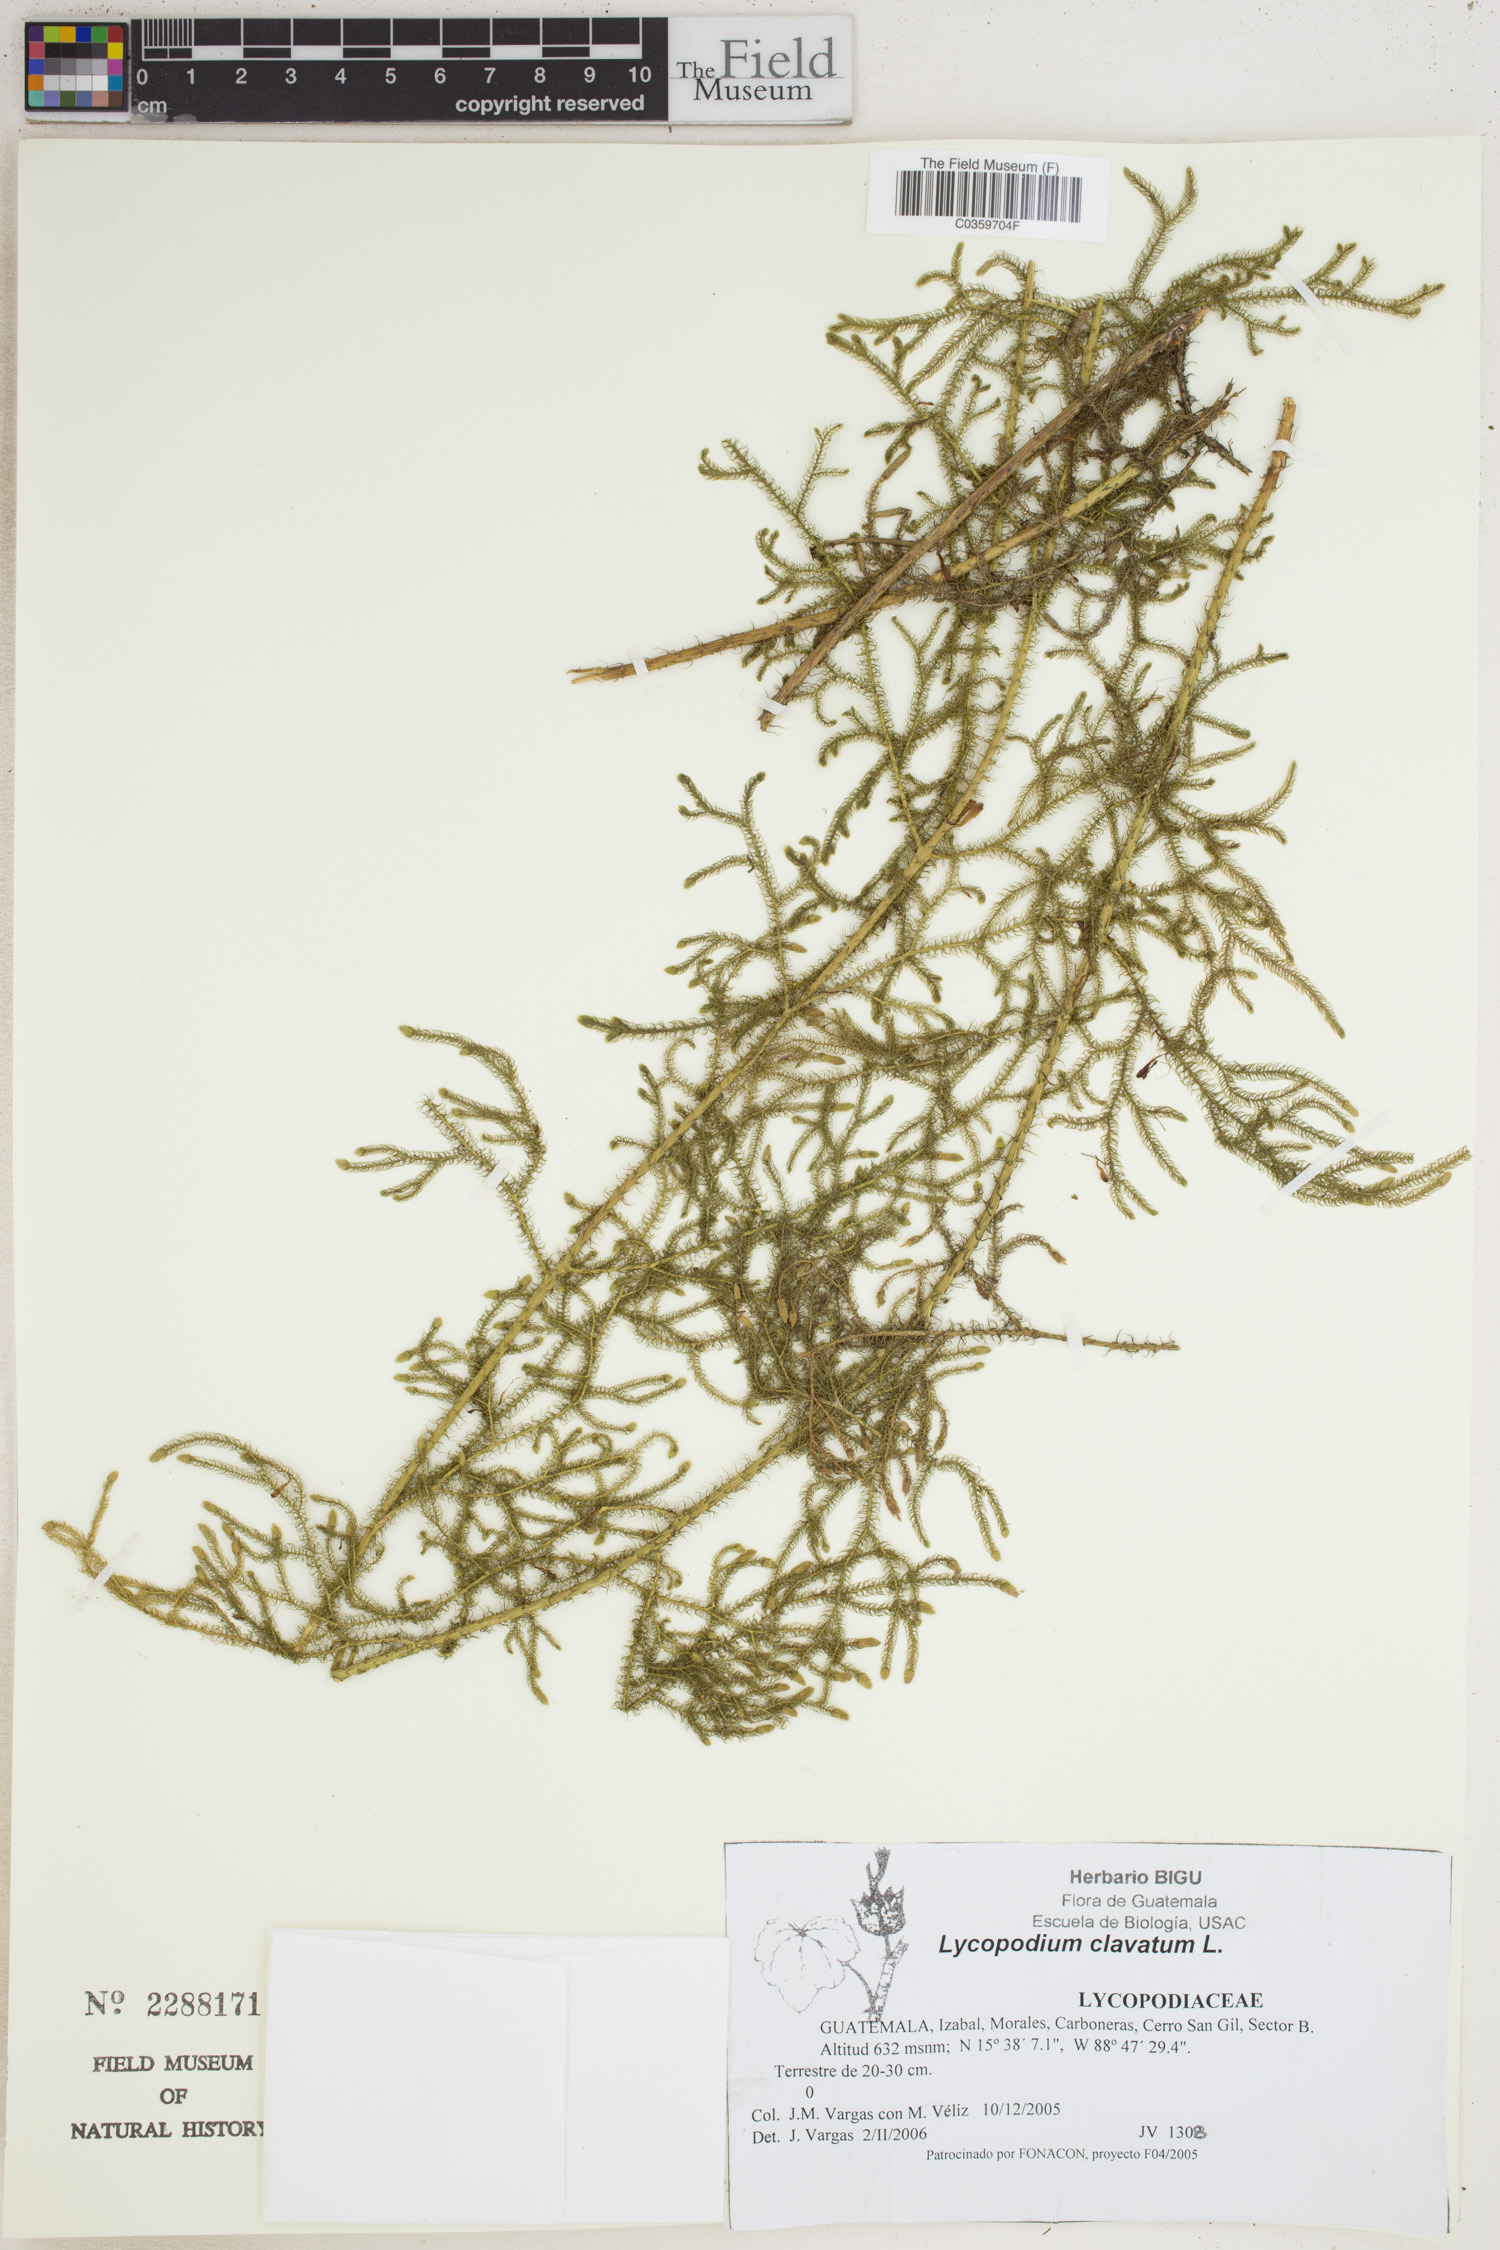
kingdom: Plantae
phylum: Tracheophyta
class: Lycopodiopsida
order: Lycopodiales
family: Lycopodiaceae
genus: Lycopodium
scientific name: Lycopodium clavatum
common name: Stag's-horn clubmoss
